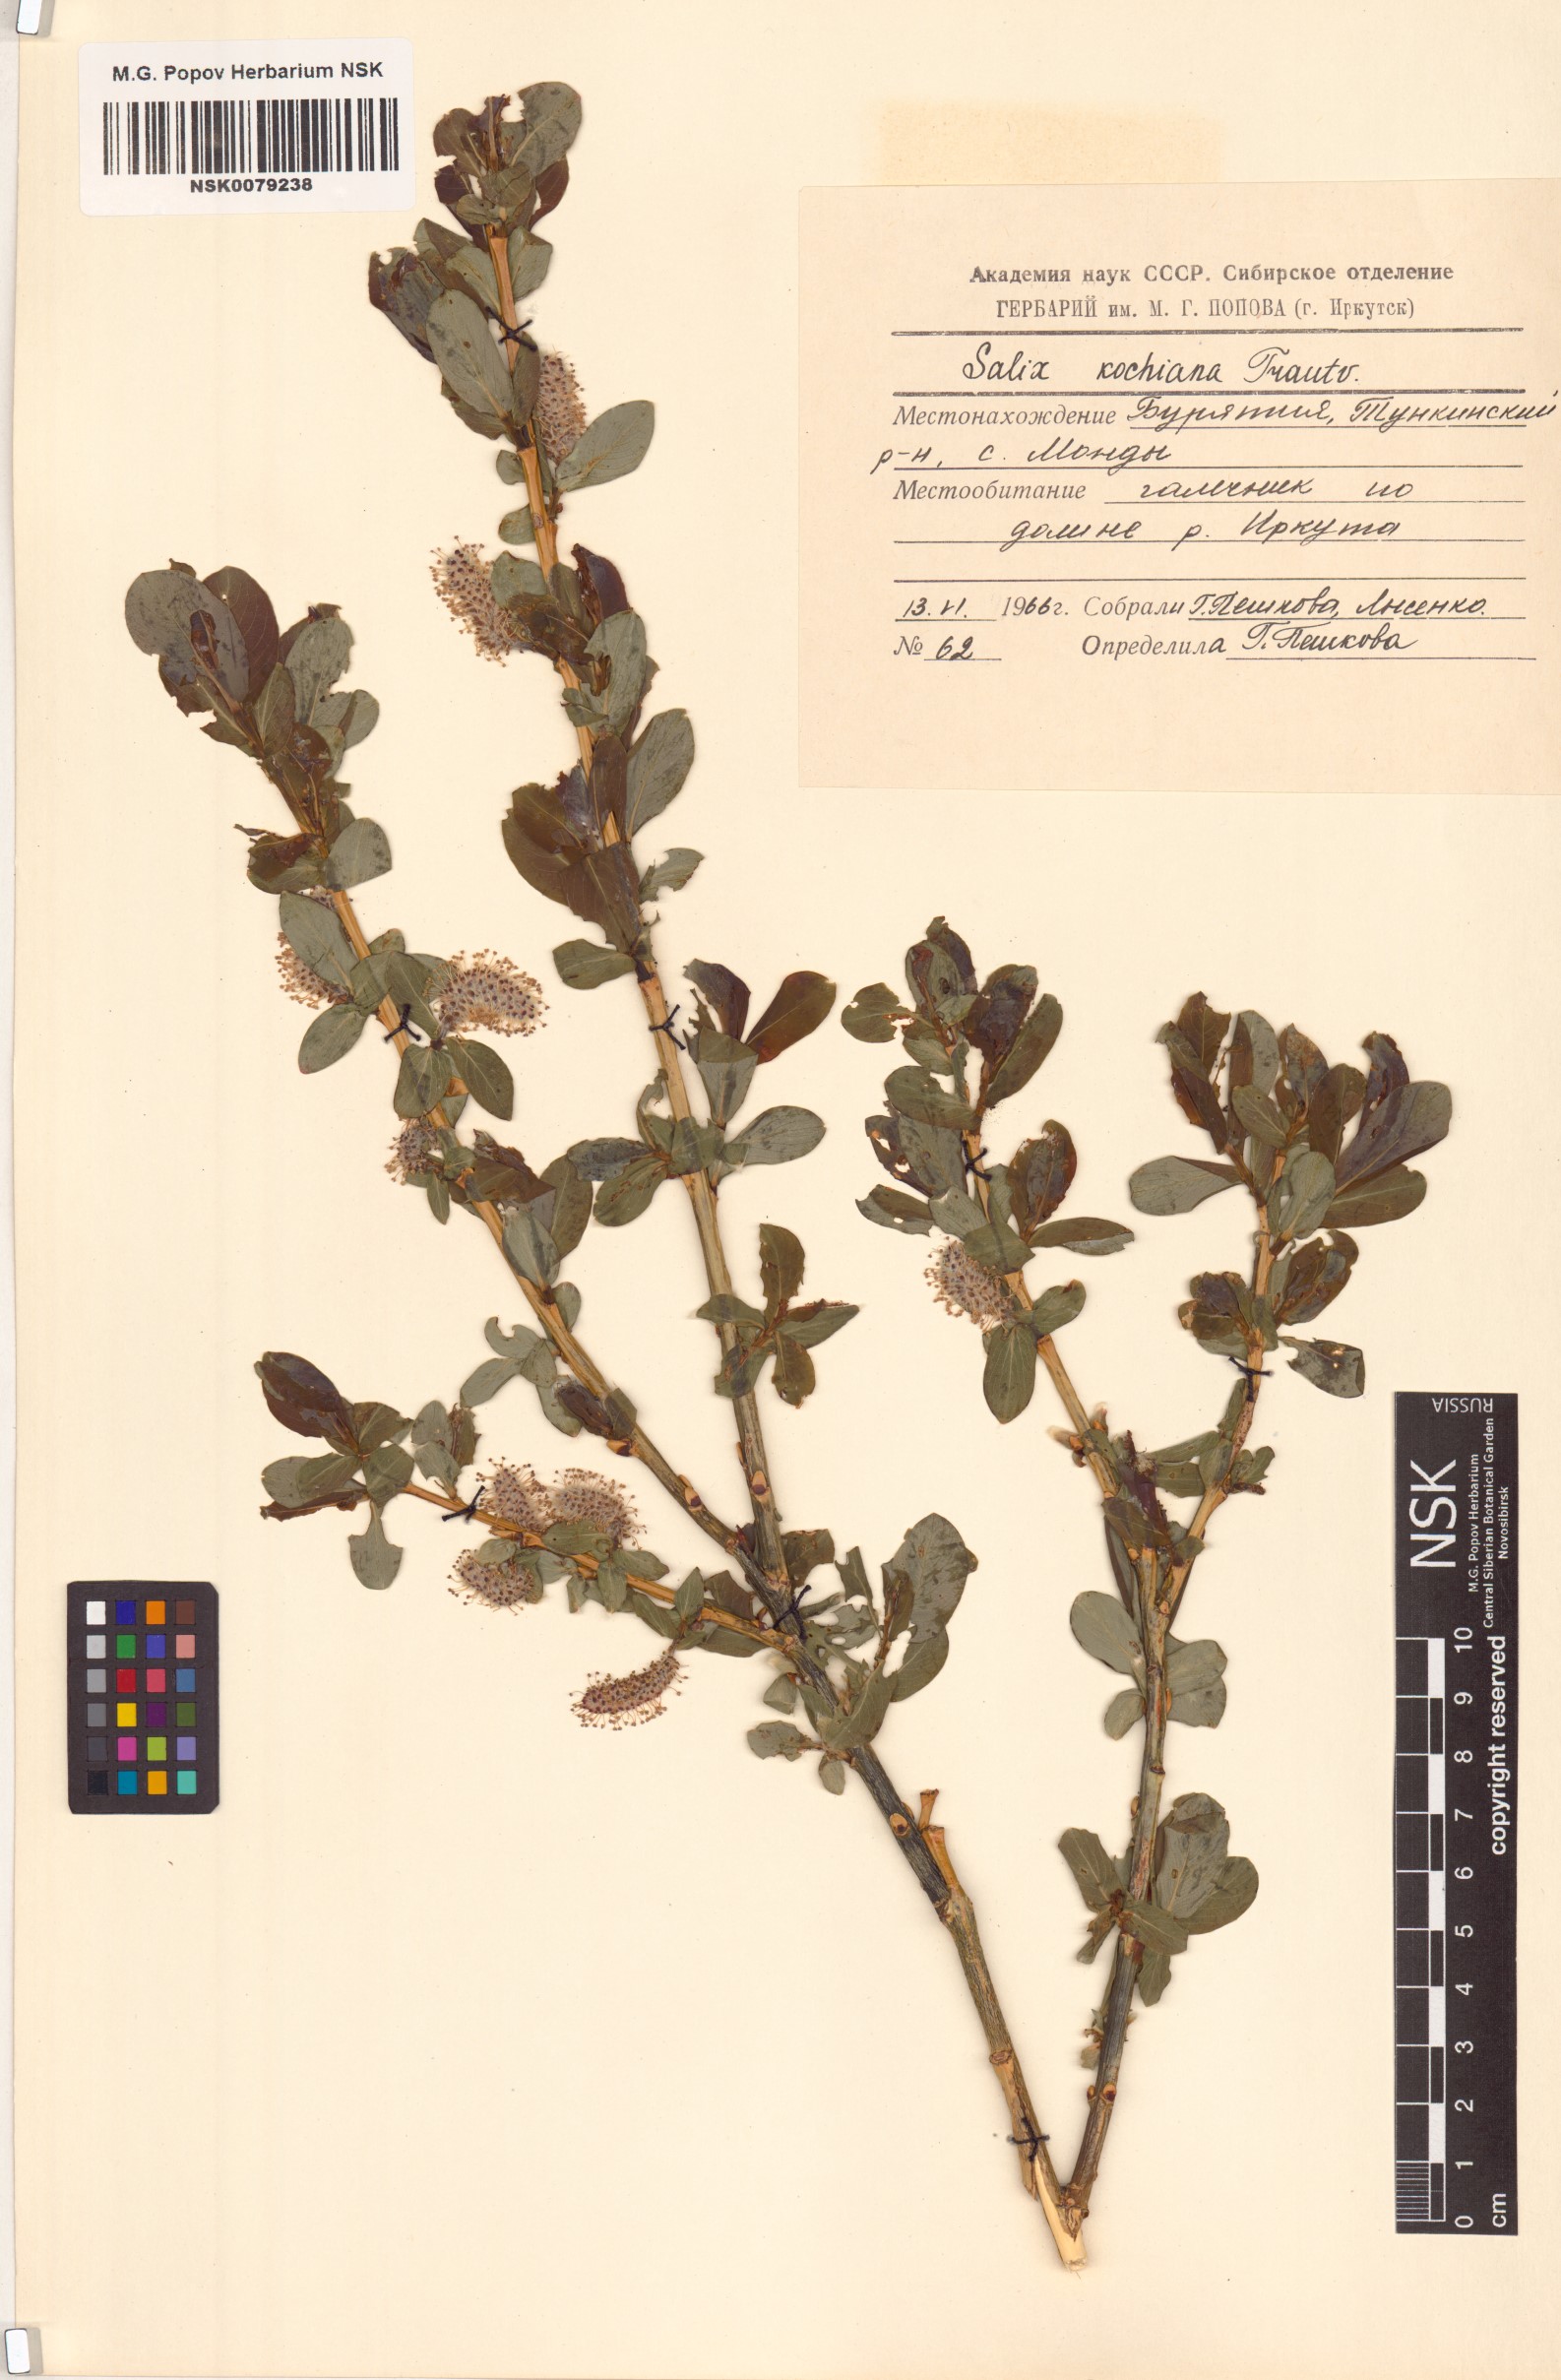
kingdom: Plantae
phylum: Tracheophyta
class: Magnoliopsida
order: Malpighiales
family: Salicaceae
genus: Salix
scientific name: Salix kochiana
